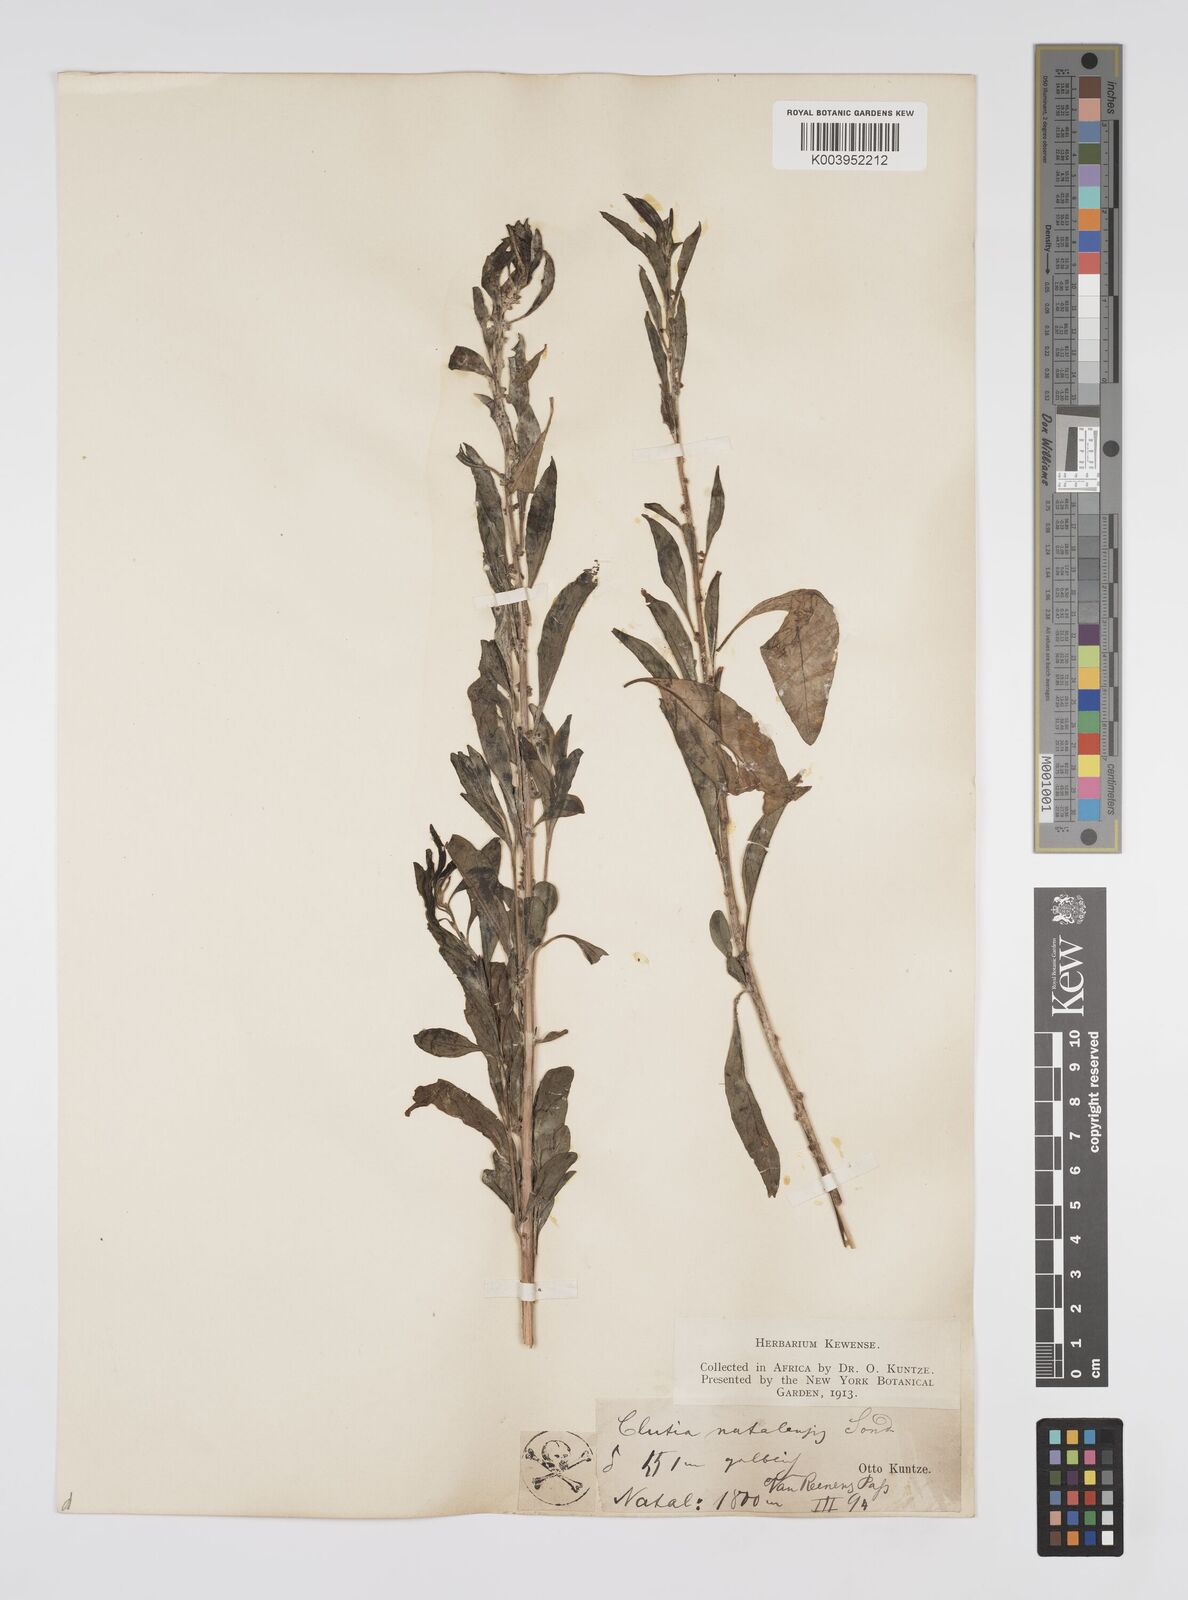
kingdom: Plantae
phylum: Tracheophyta
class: Magnoliopsida
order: Malpighiales
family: Peraceae
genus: Clutia
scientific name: Clutia natalensis
